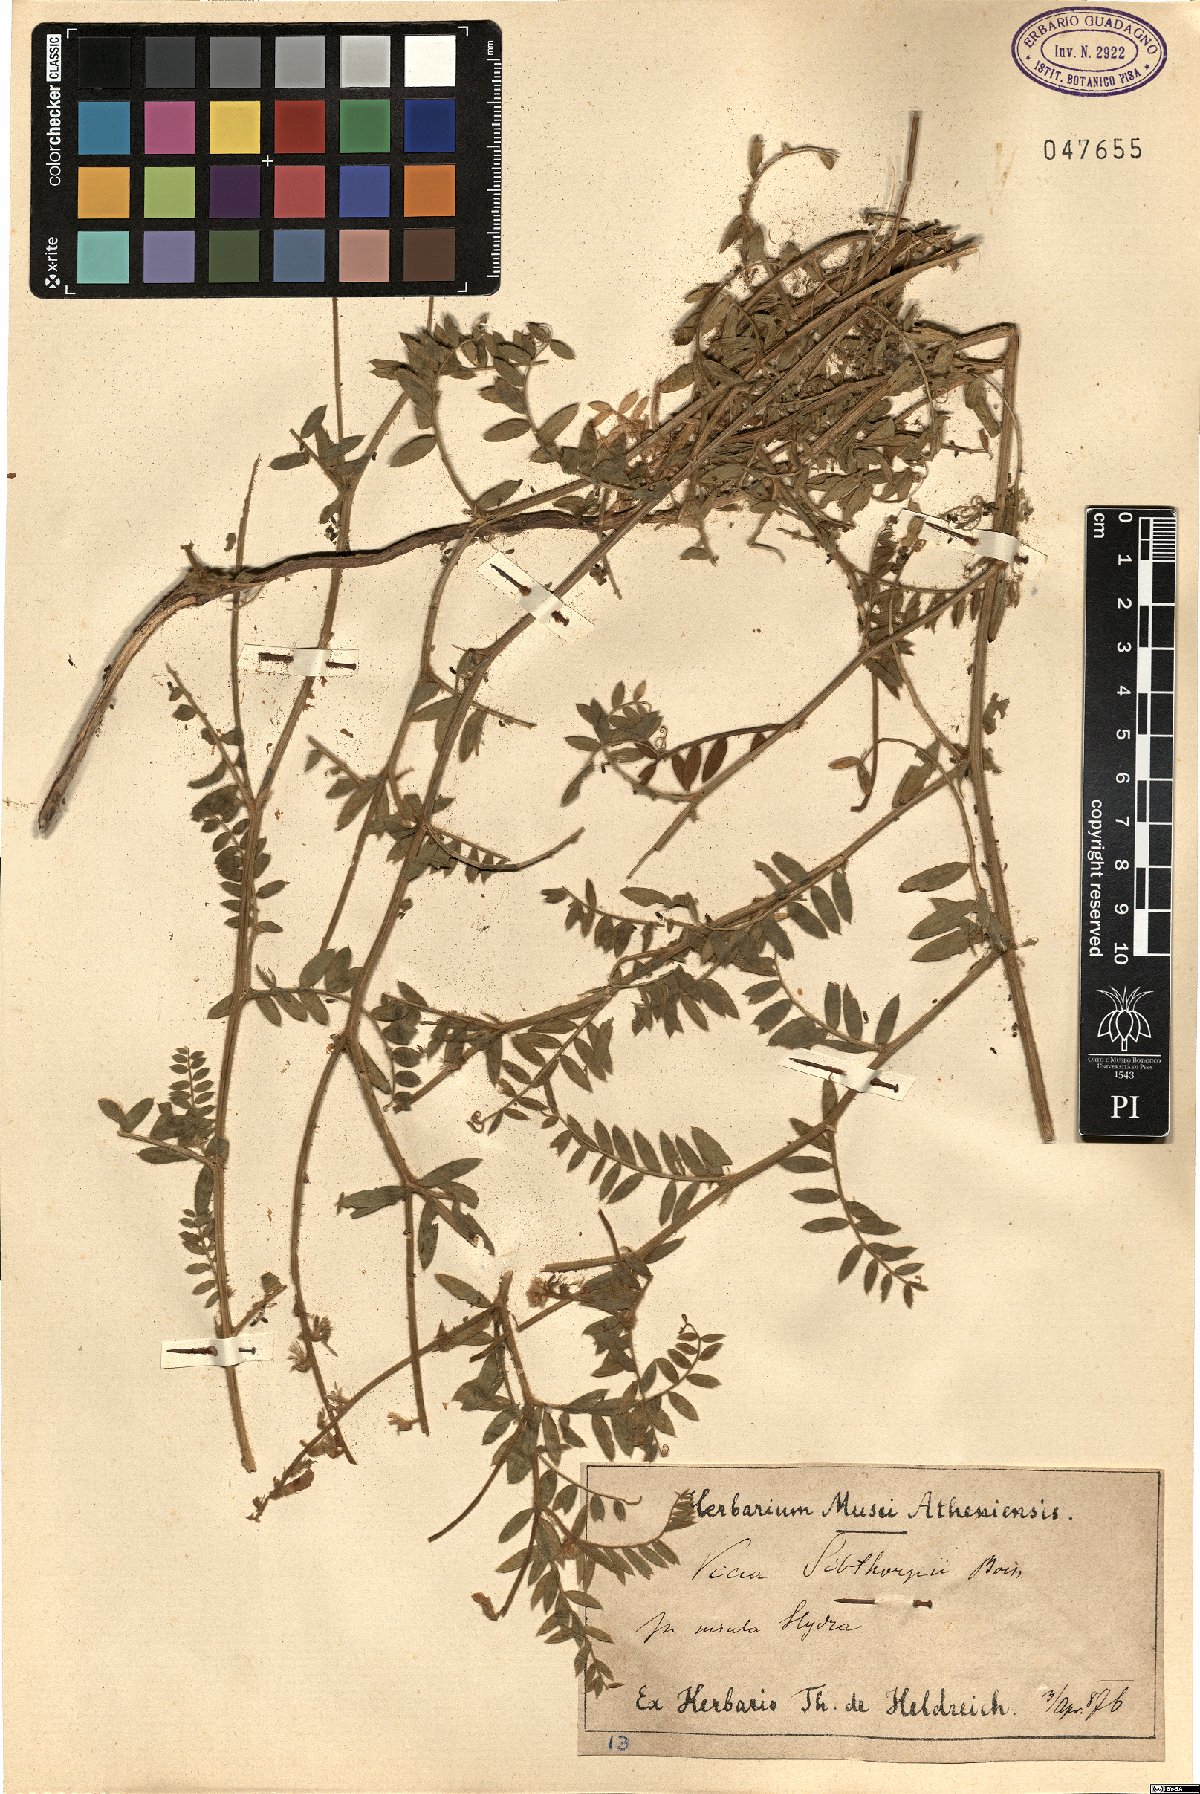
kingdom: Plantae
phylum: Tracheophyta
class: Magnoliopsida
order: Fabales
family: Fabaceae
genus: Vicia
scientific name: Vicia sibthorpii
